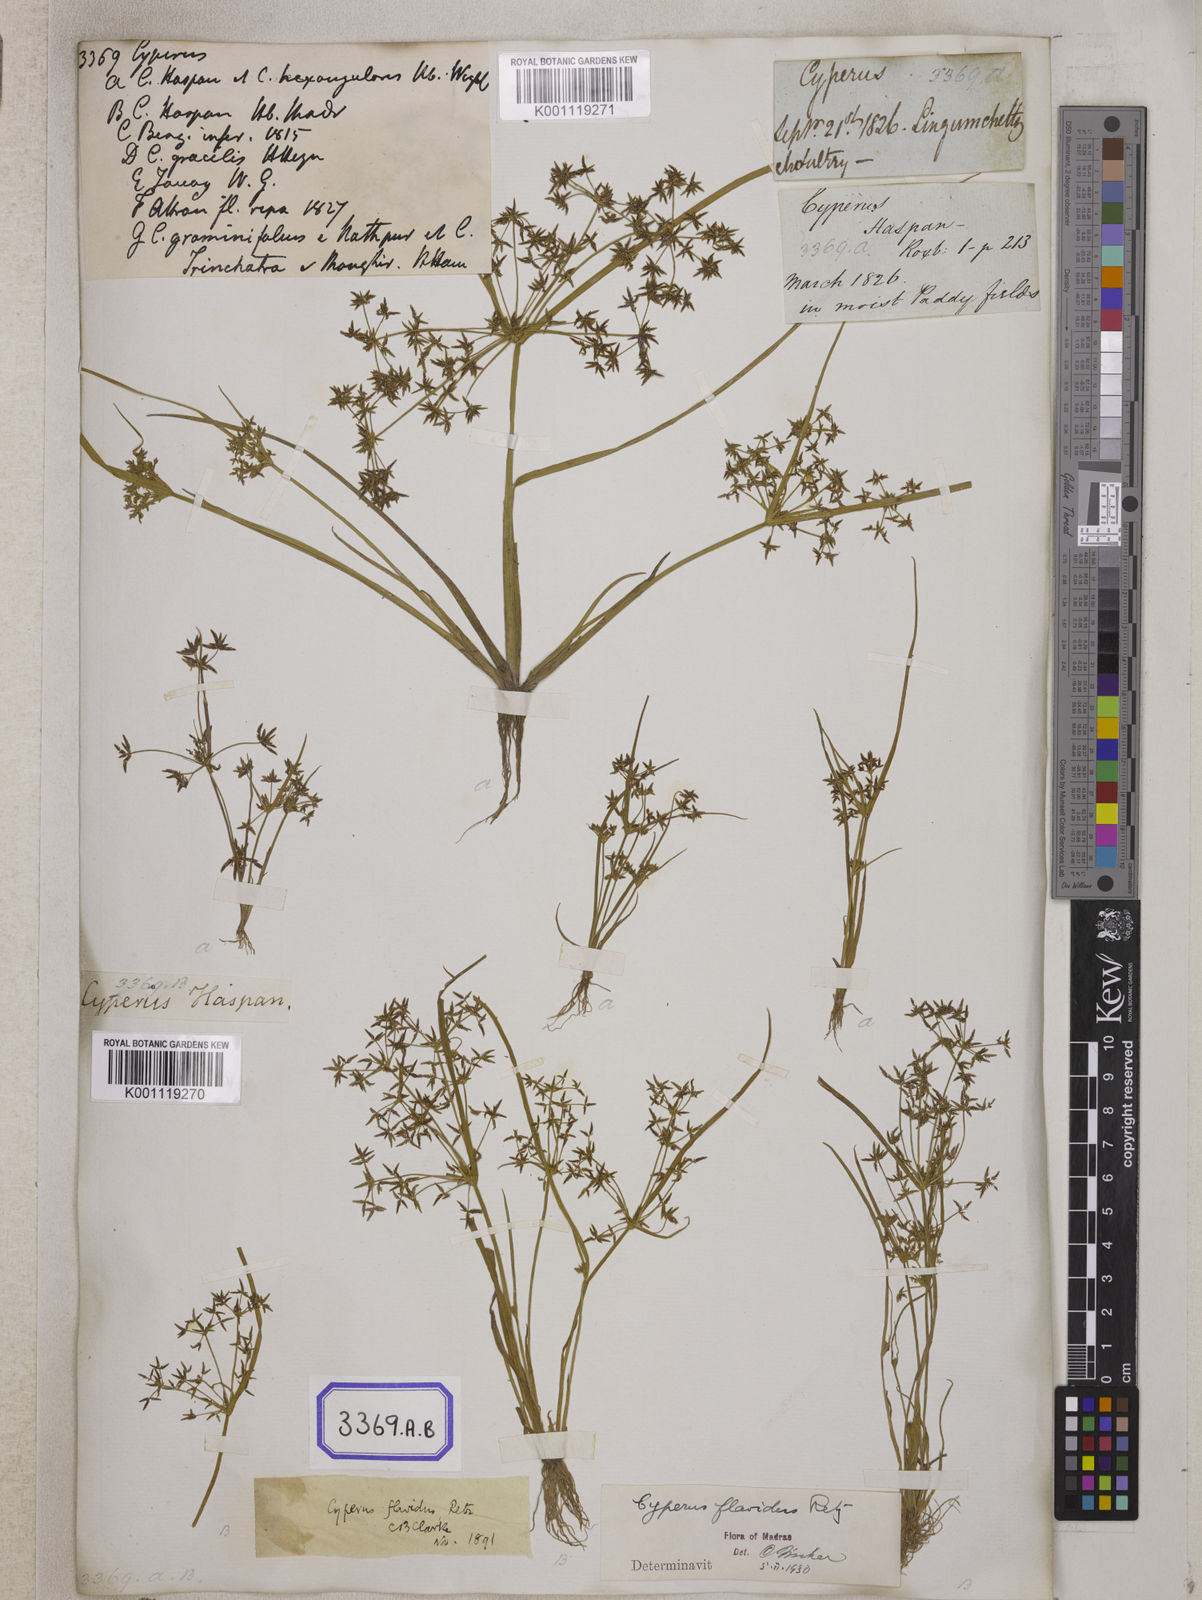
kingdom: Plantae
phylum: Tracheophyta
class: Liliopsida
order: Poales
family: Cyperaceae
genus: Cyperus
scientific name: Cyperus
